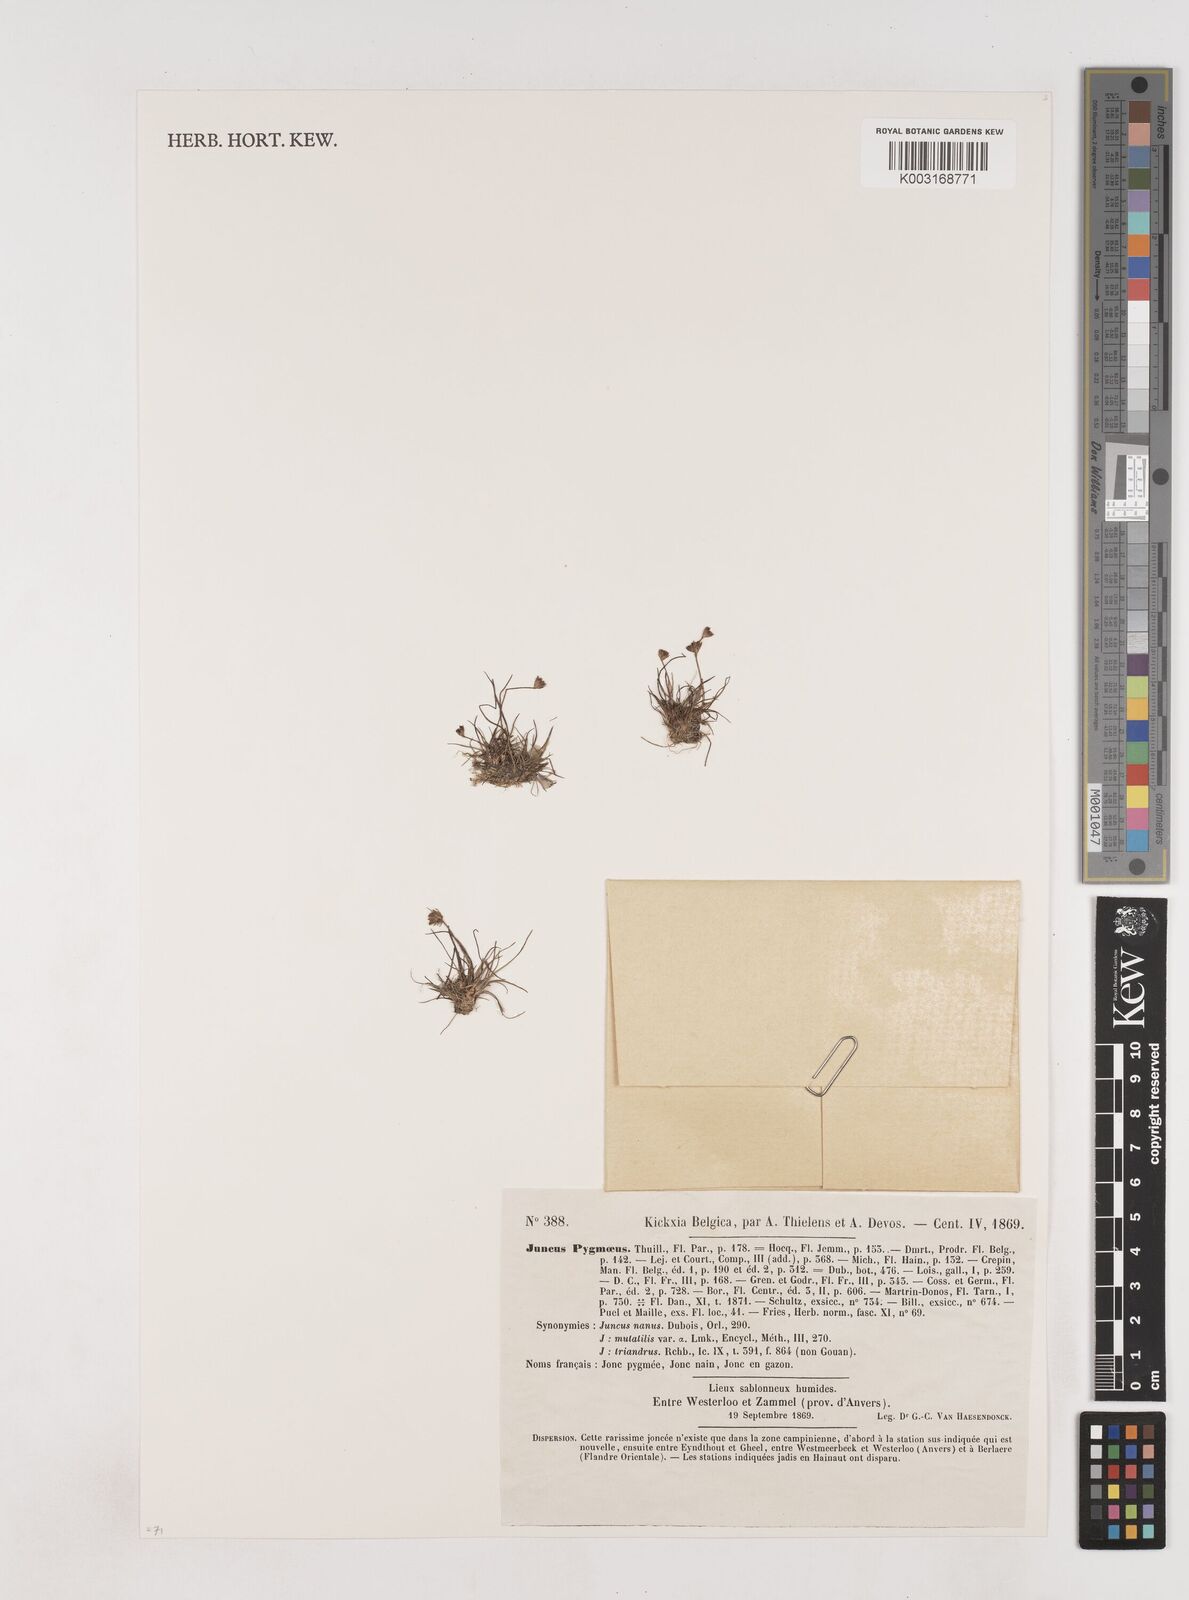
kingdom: Plantae
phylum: Tracheophyta
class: Liliopsida
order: Poales
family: Juncaceae
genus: Juncus
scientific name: Juncus pygmaeus
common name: Pigmy rush
